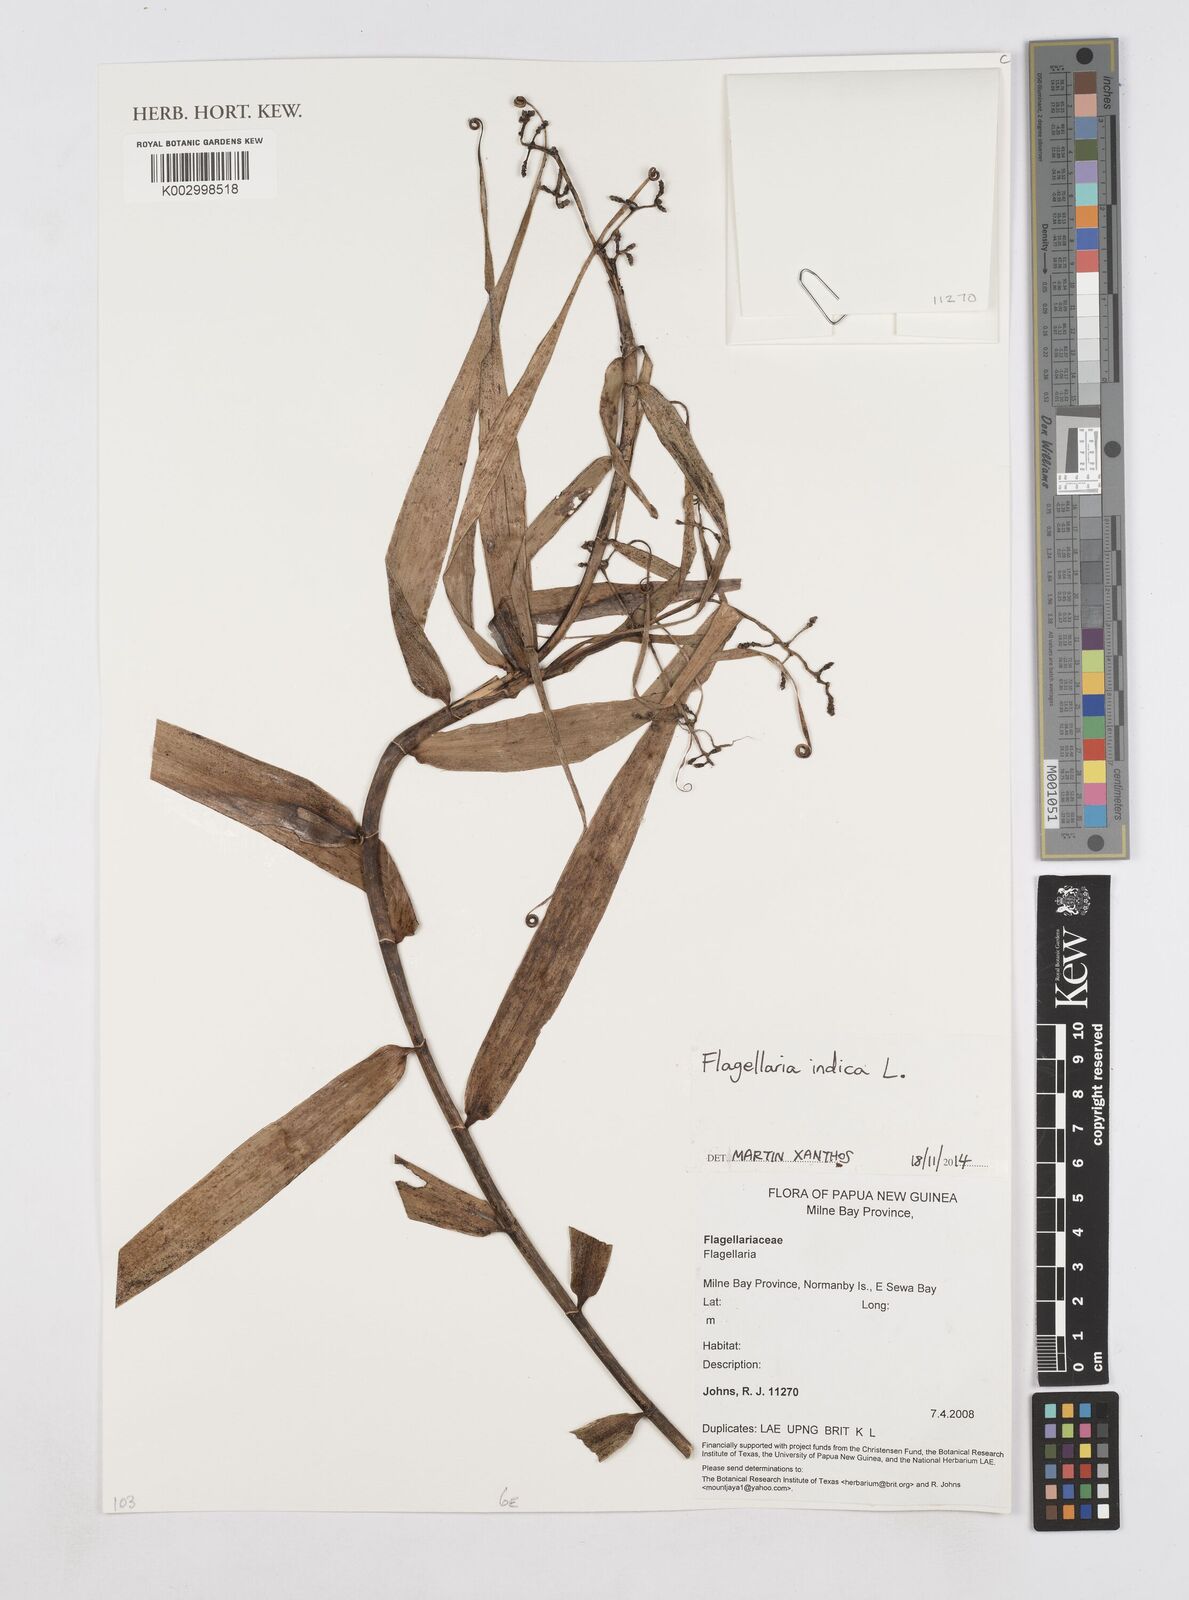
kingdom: Plantae
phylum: Tracheophyta
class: Liliopsida
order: Poales
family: Flagellariaceae
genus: Flagellaria
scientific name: Flagellaria indica
